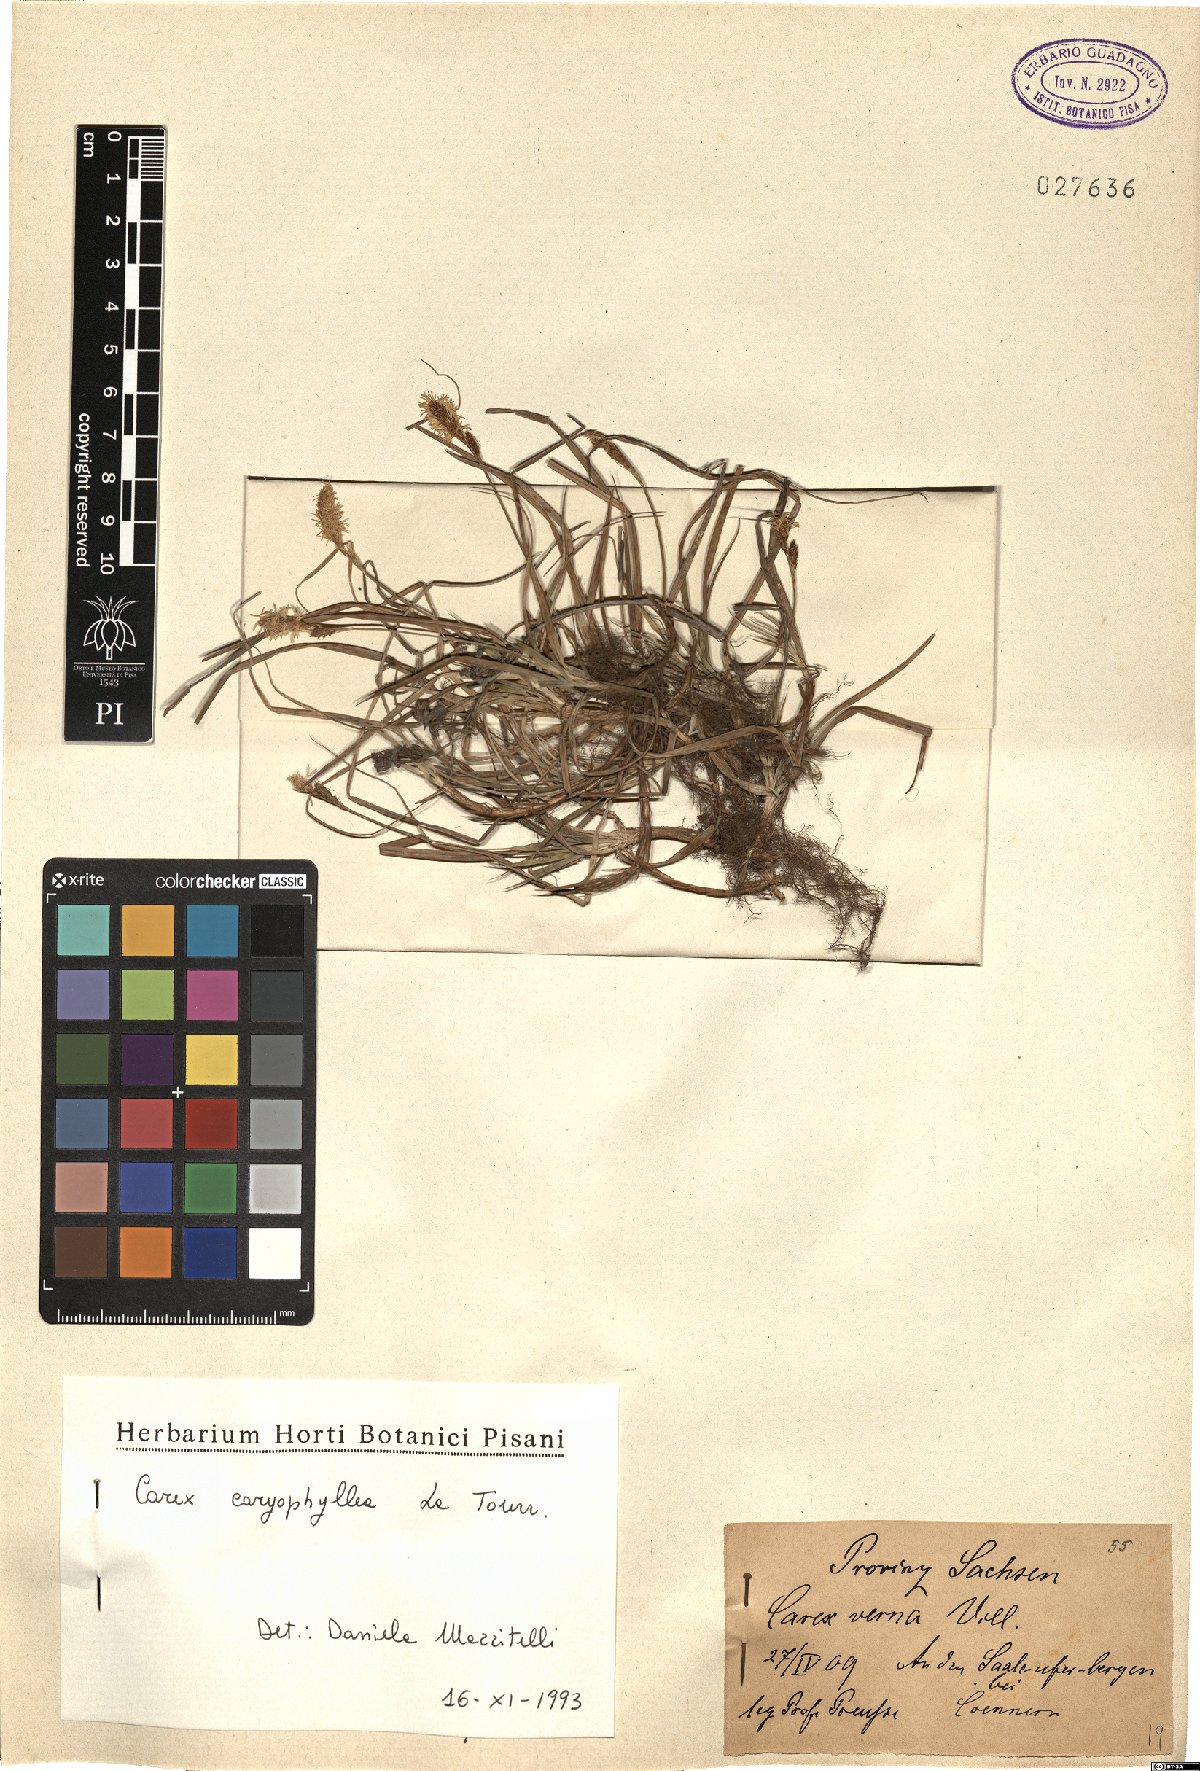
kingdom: Plantae
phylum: Tracheophyta
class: Liliopsida
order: Poales
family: Cyperaceae
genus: Carex
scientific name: Carex caryophyllea
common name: Spring sedge
